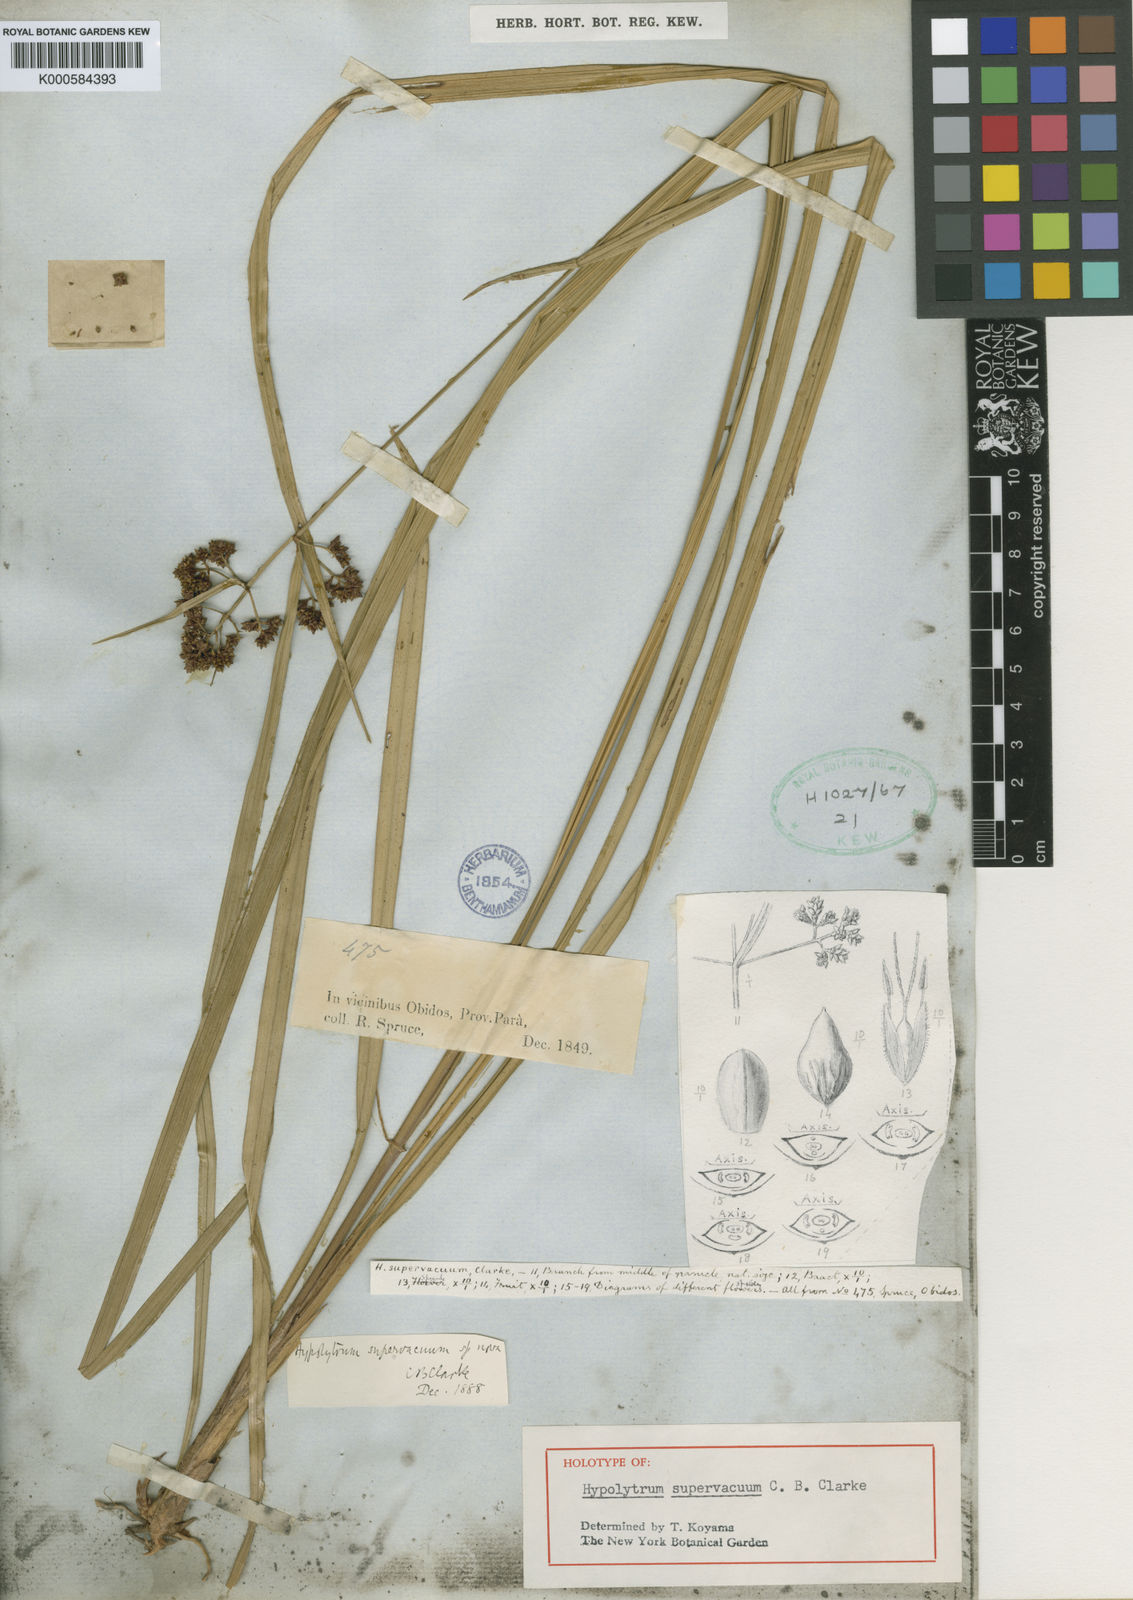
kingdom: Plantae
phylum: Tracheophyta
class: Liliopsida
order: Poales
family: Cyperaceae
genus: Hypolytrum
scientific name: Hypolytrum supervacuum
